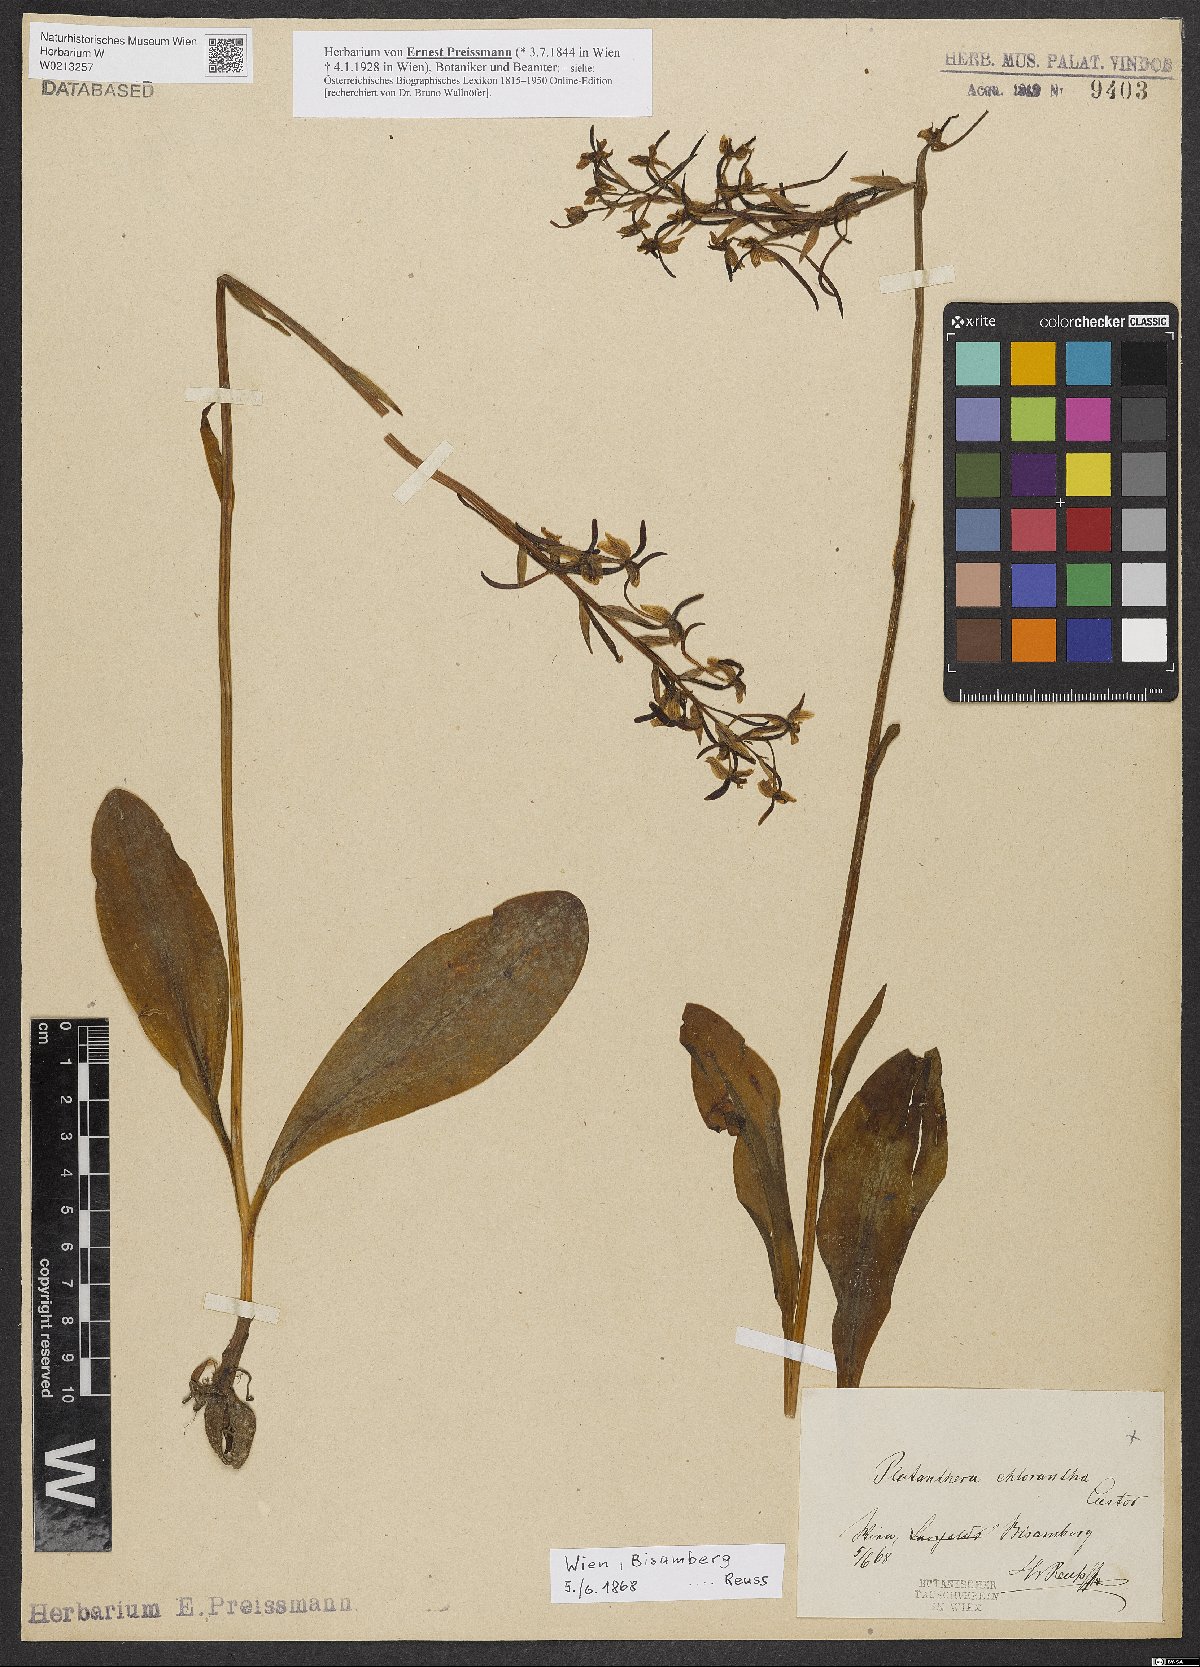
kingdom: Plantae
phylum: Tracheophyta
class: Liliopsida
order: Asparagales
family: Orchidaceae
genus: Platanthera
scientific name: Platanthera chlorantha
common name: Greater butterfly-orchid
